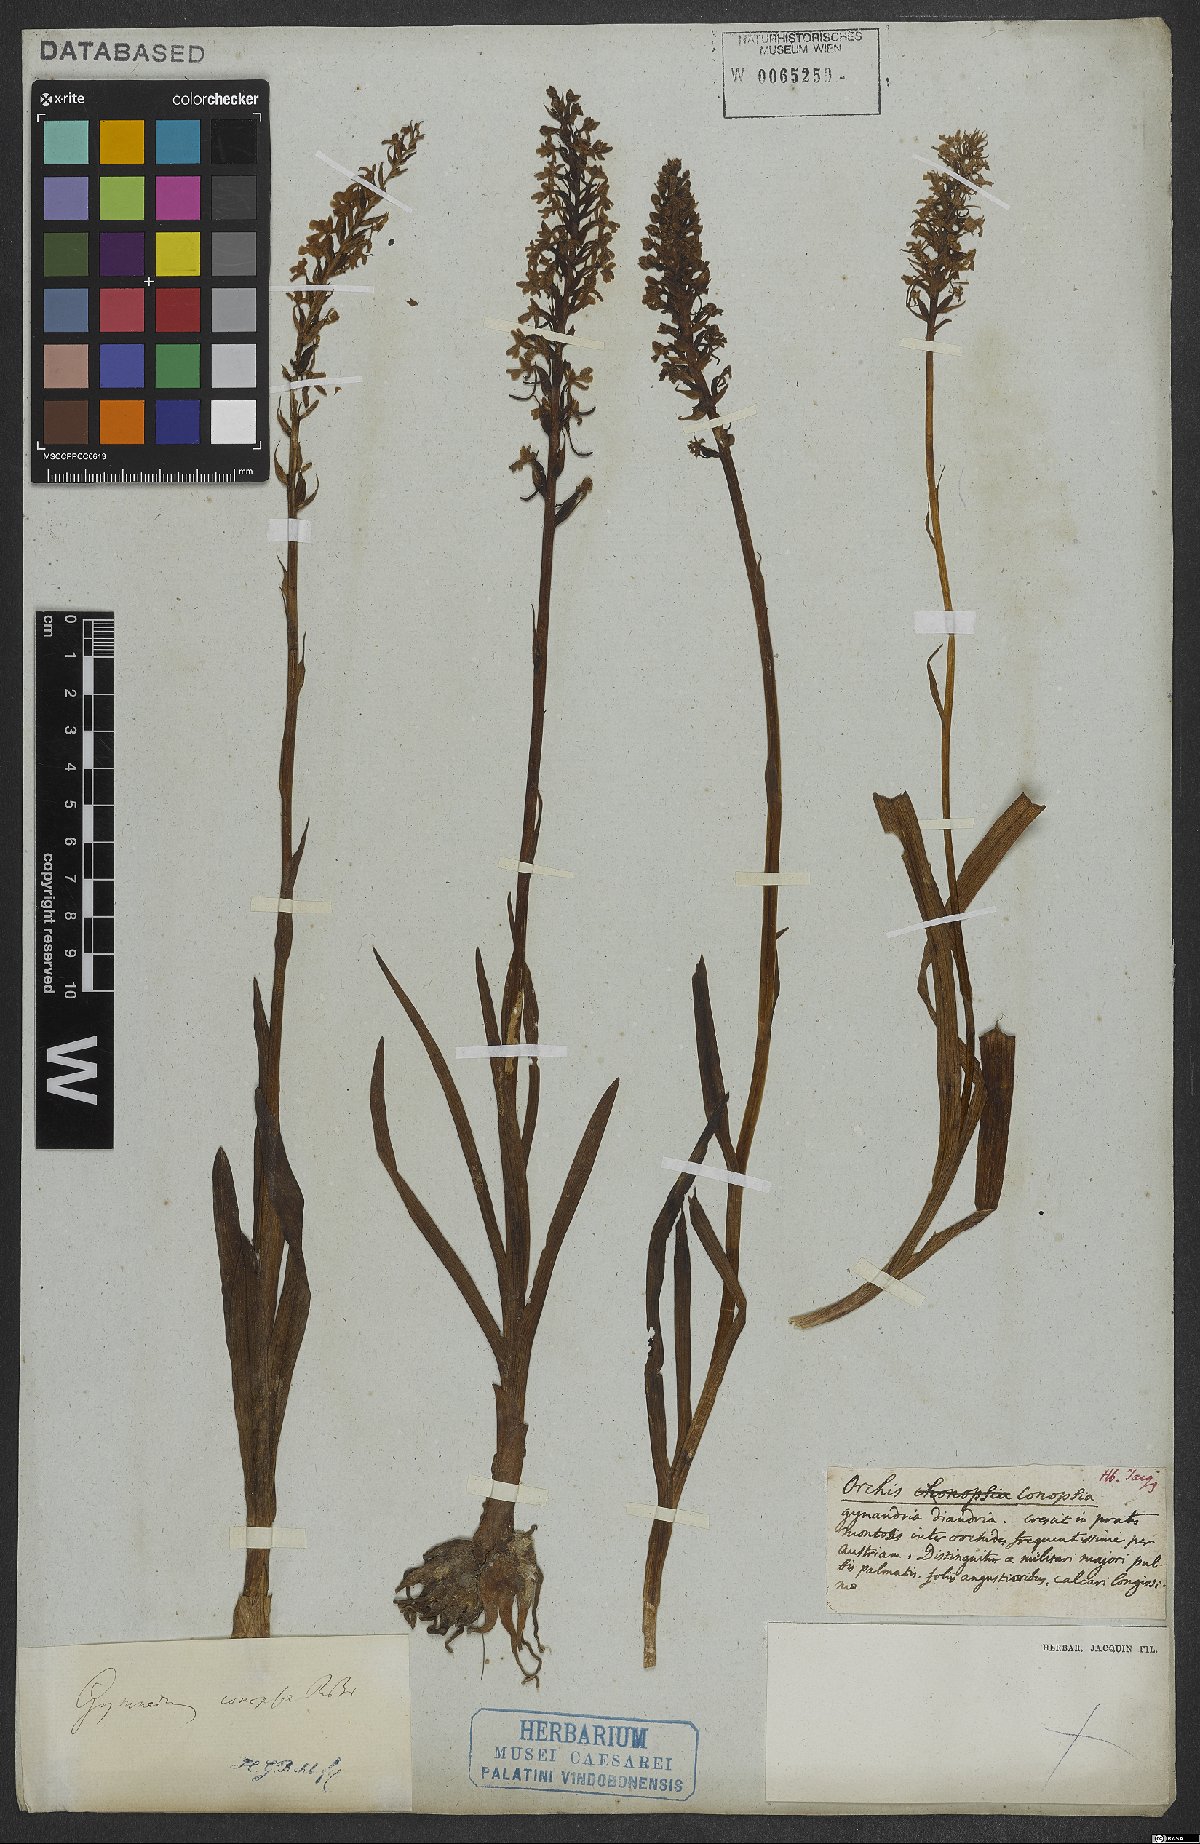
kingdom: Plantae
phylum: Tracheophyta
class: Liliopsida
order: Asparagales
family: Orchidaceae
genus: Gymnadenia
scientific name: Gymnadenia conopsea
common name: Fragrant orchid
